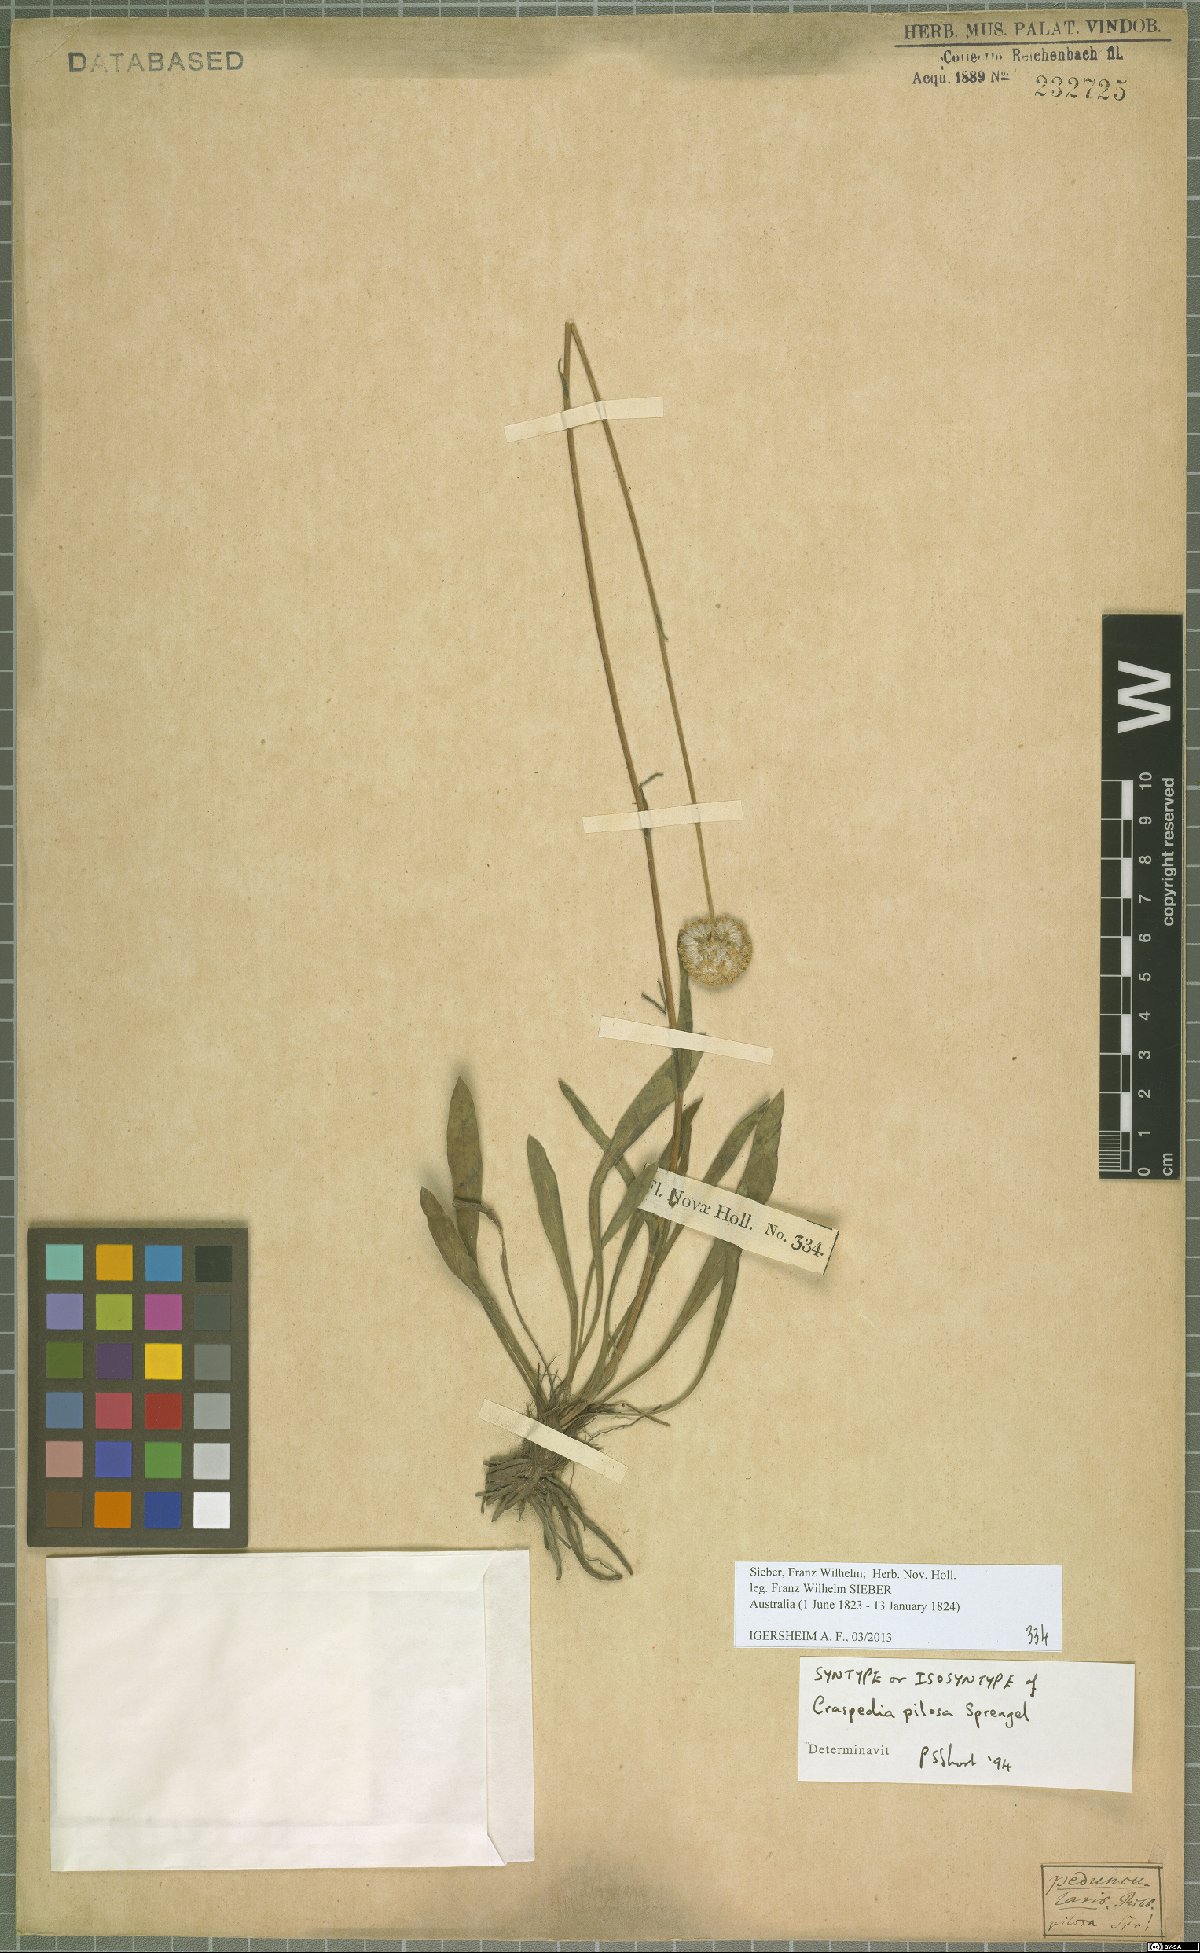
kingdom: Plantae
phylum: Tracheophyta
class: Magnoliopsida
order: Asterales
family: Asteraceae
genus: Craspedia
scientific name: Craspedia pilosa
